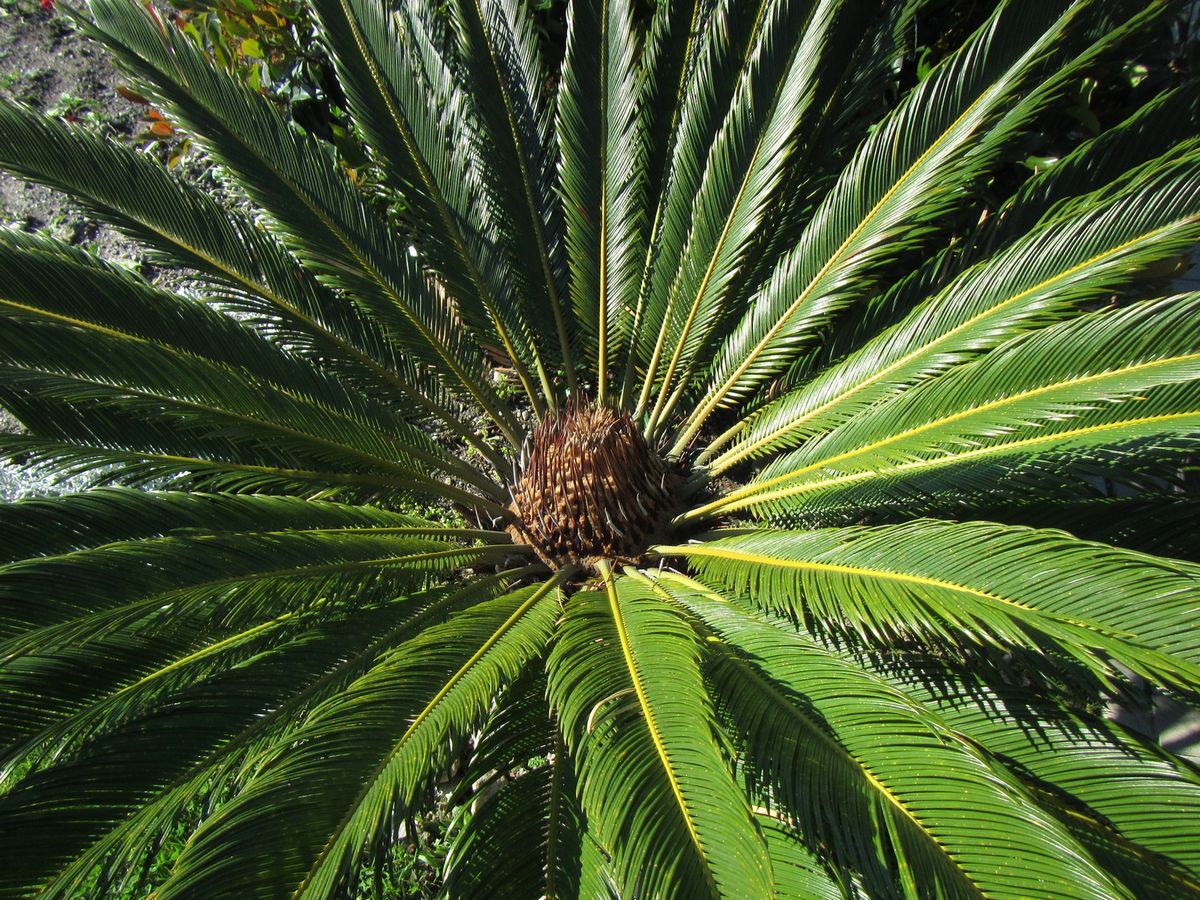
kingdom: Plantae
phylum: Tracheophyta
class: Cycadopsida
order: Cycadales
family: Cycadaceae
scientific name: Cycadaceae
